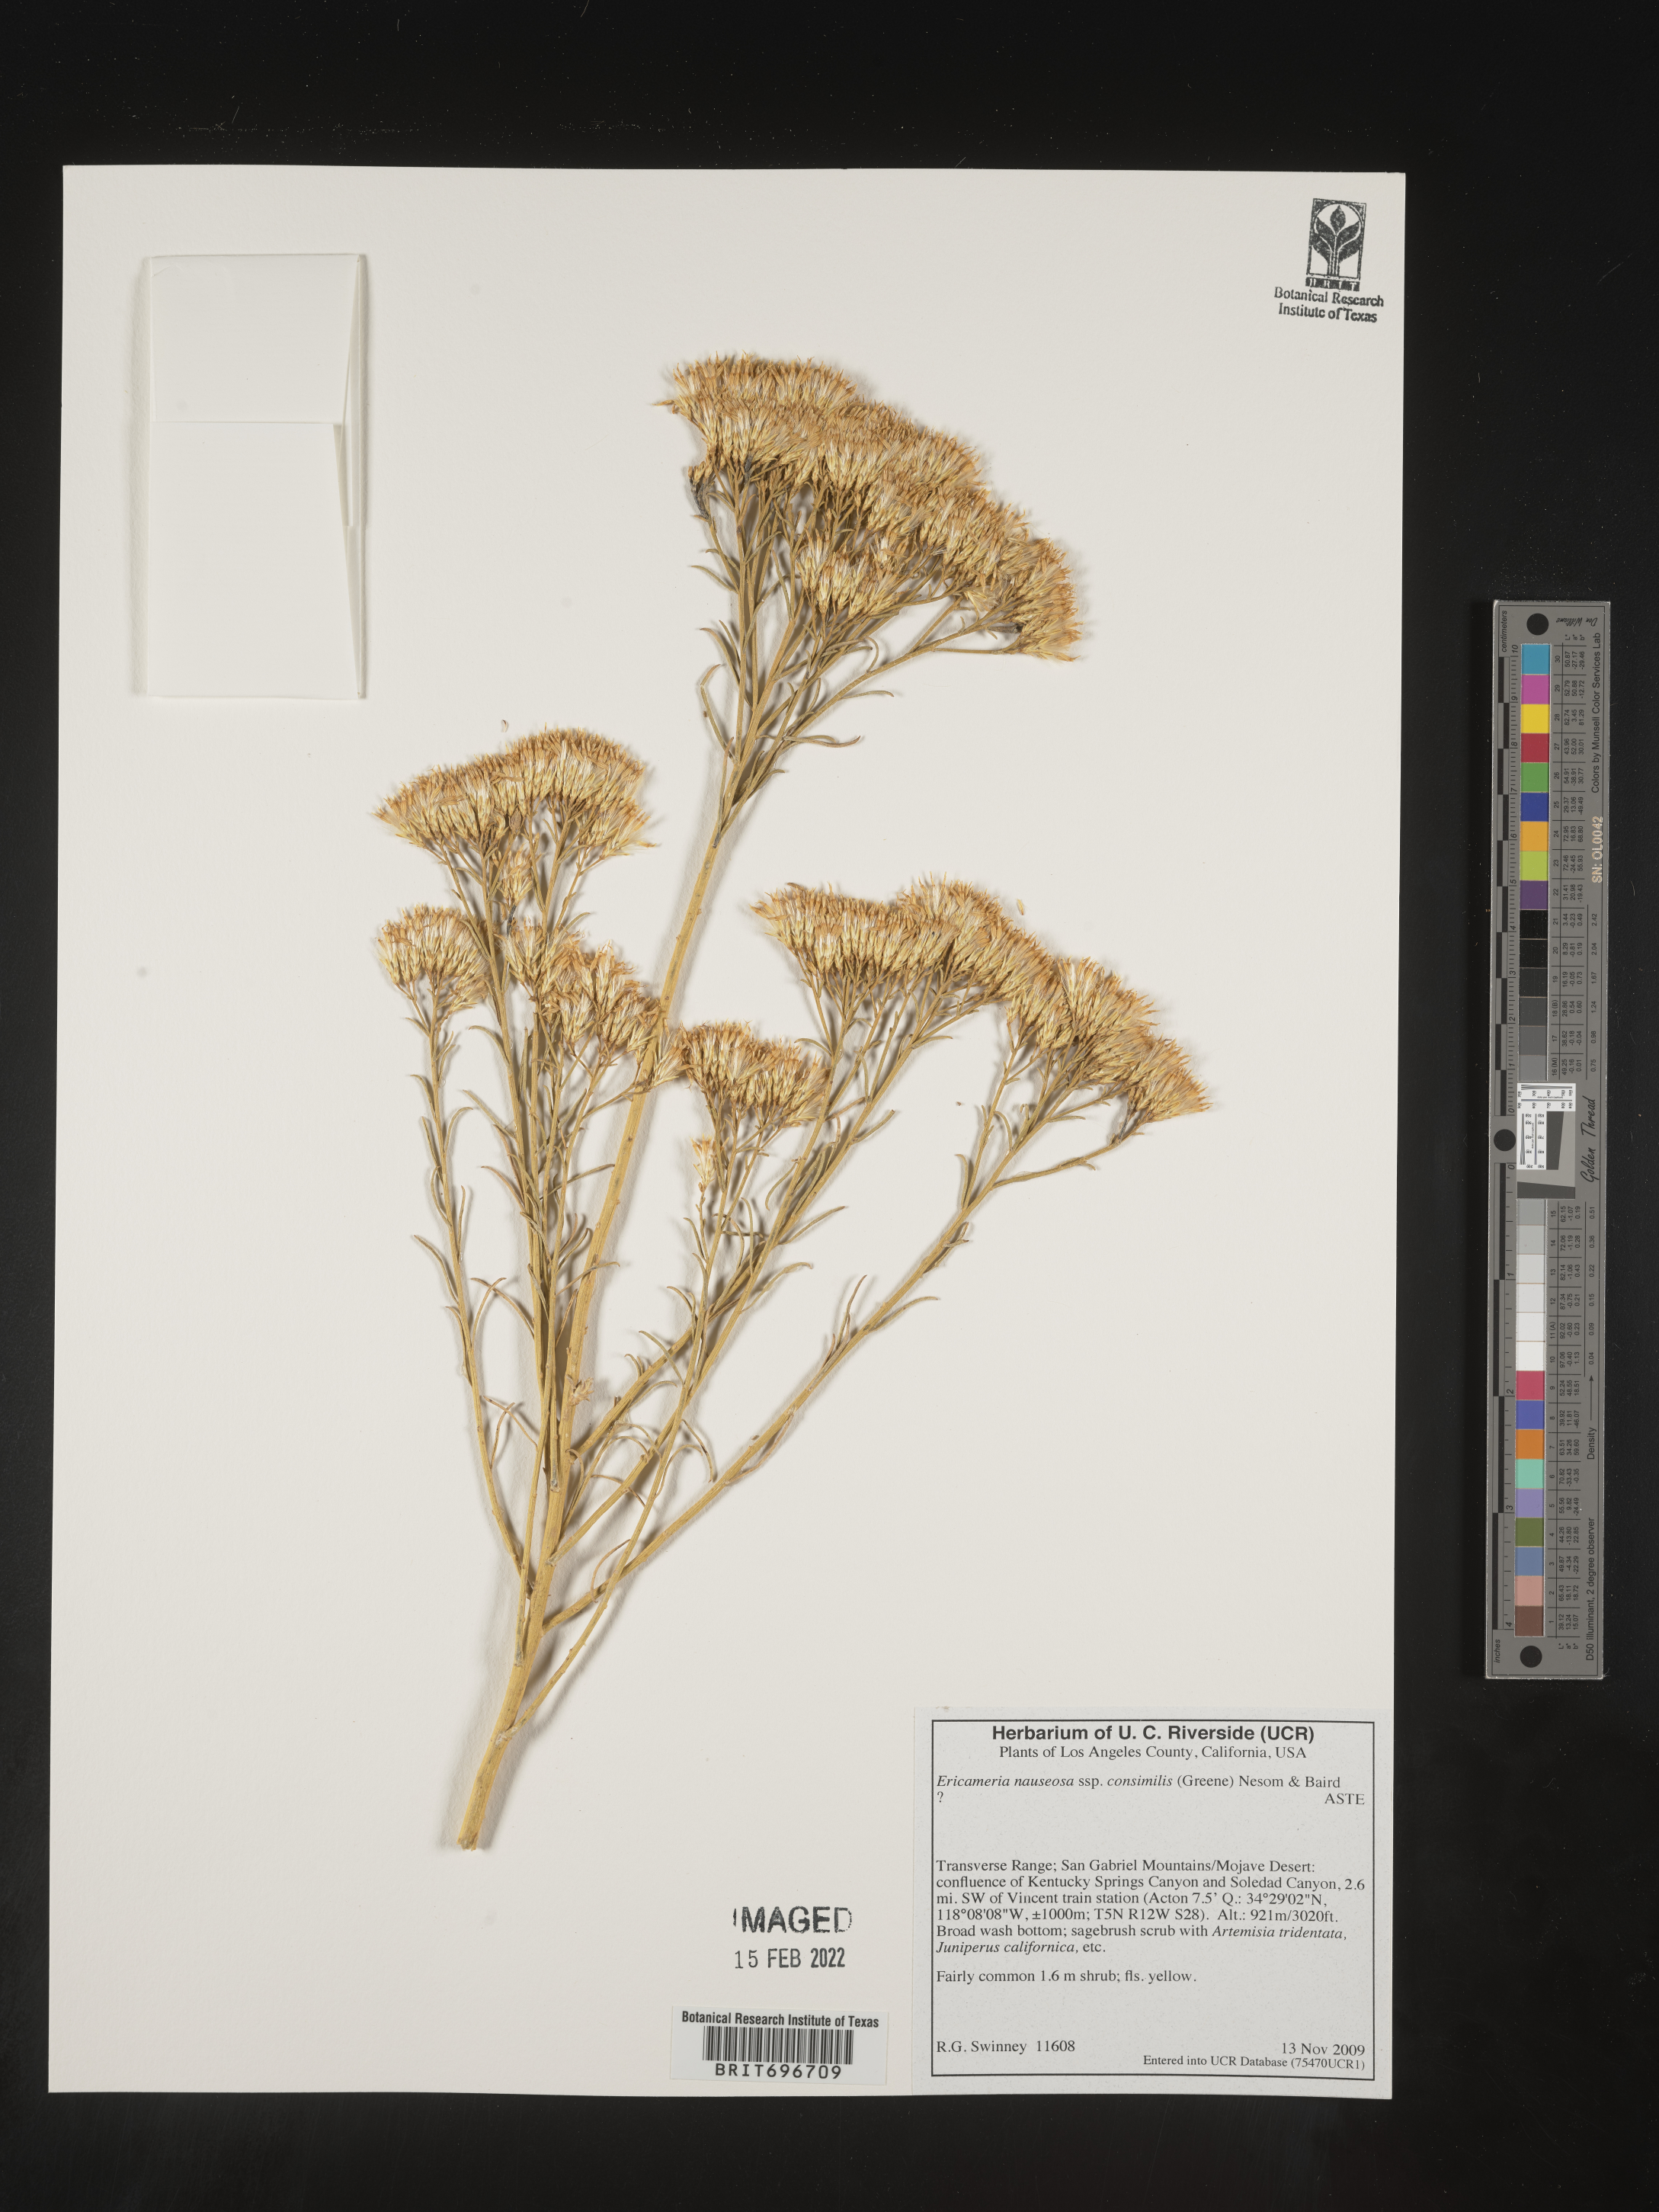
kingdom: Plantae
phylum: Tracheophyta
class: Magnoliopsida
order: Asterales
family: Asteraceae
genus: Ericameria
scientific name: Ericameria nauseosa
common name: Rubber rabbitbrush
